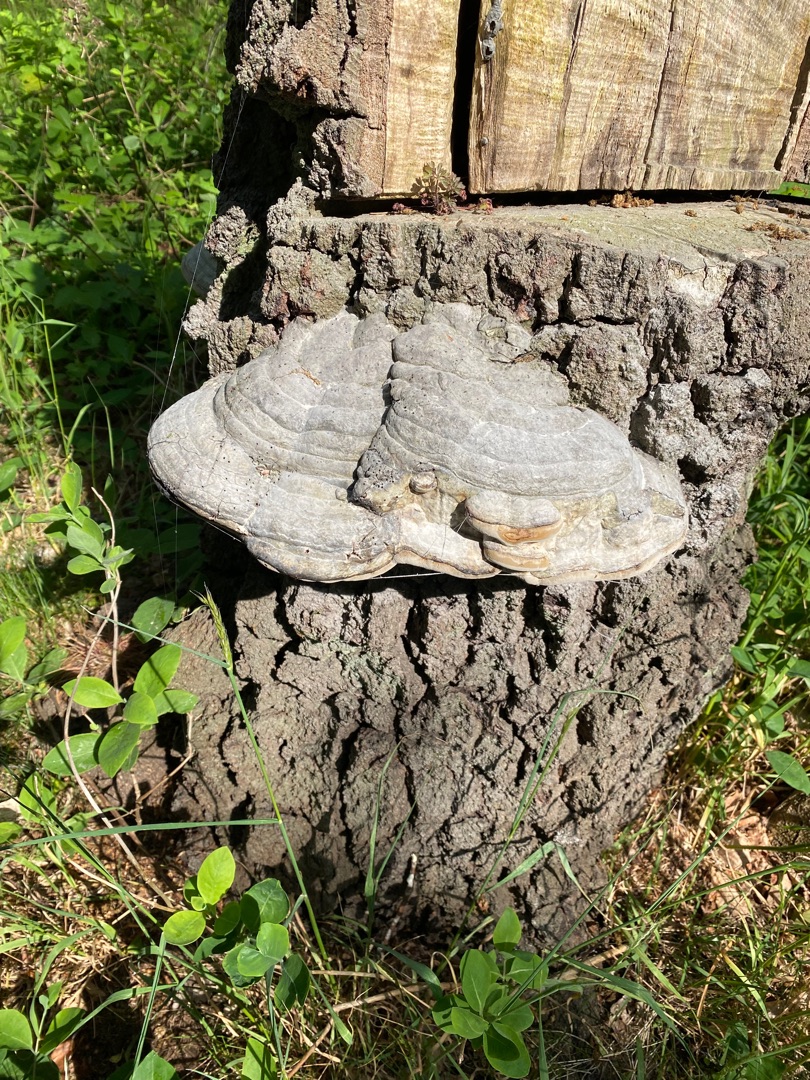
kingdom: Fungi
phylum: Basidiomycota
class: Agaricomycetes
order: Polyporales
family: Polyporaceae
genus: Fomes
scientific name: Fomes fomentarius
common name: Tøndersvamp
